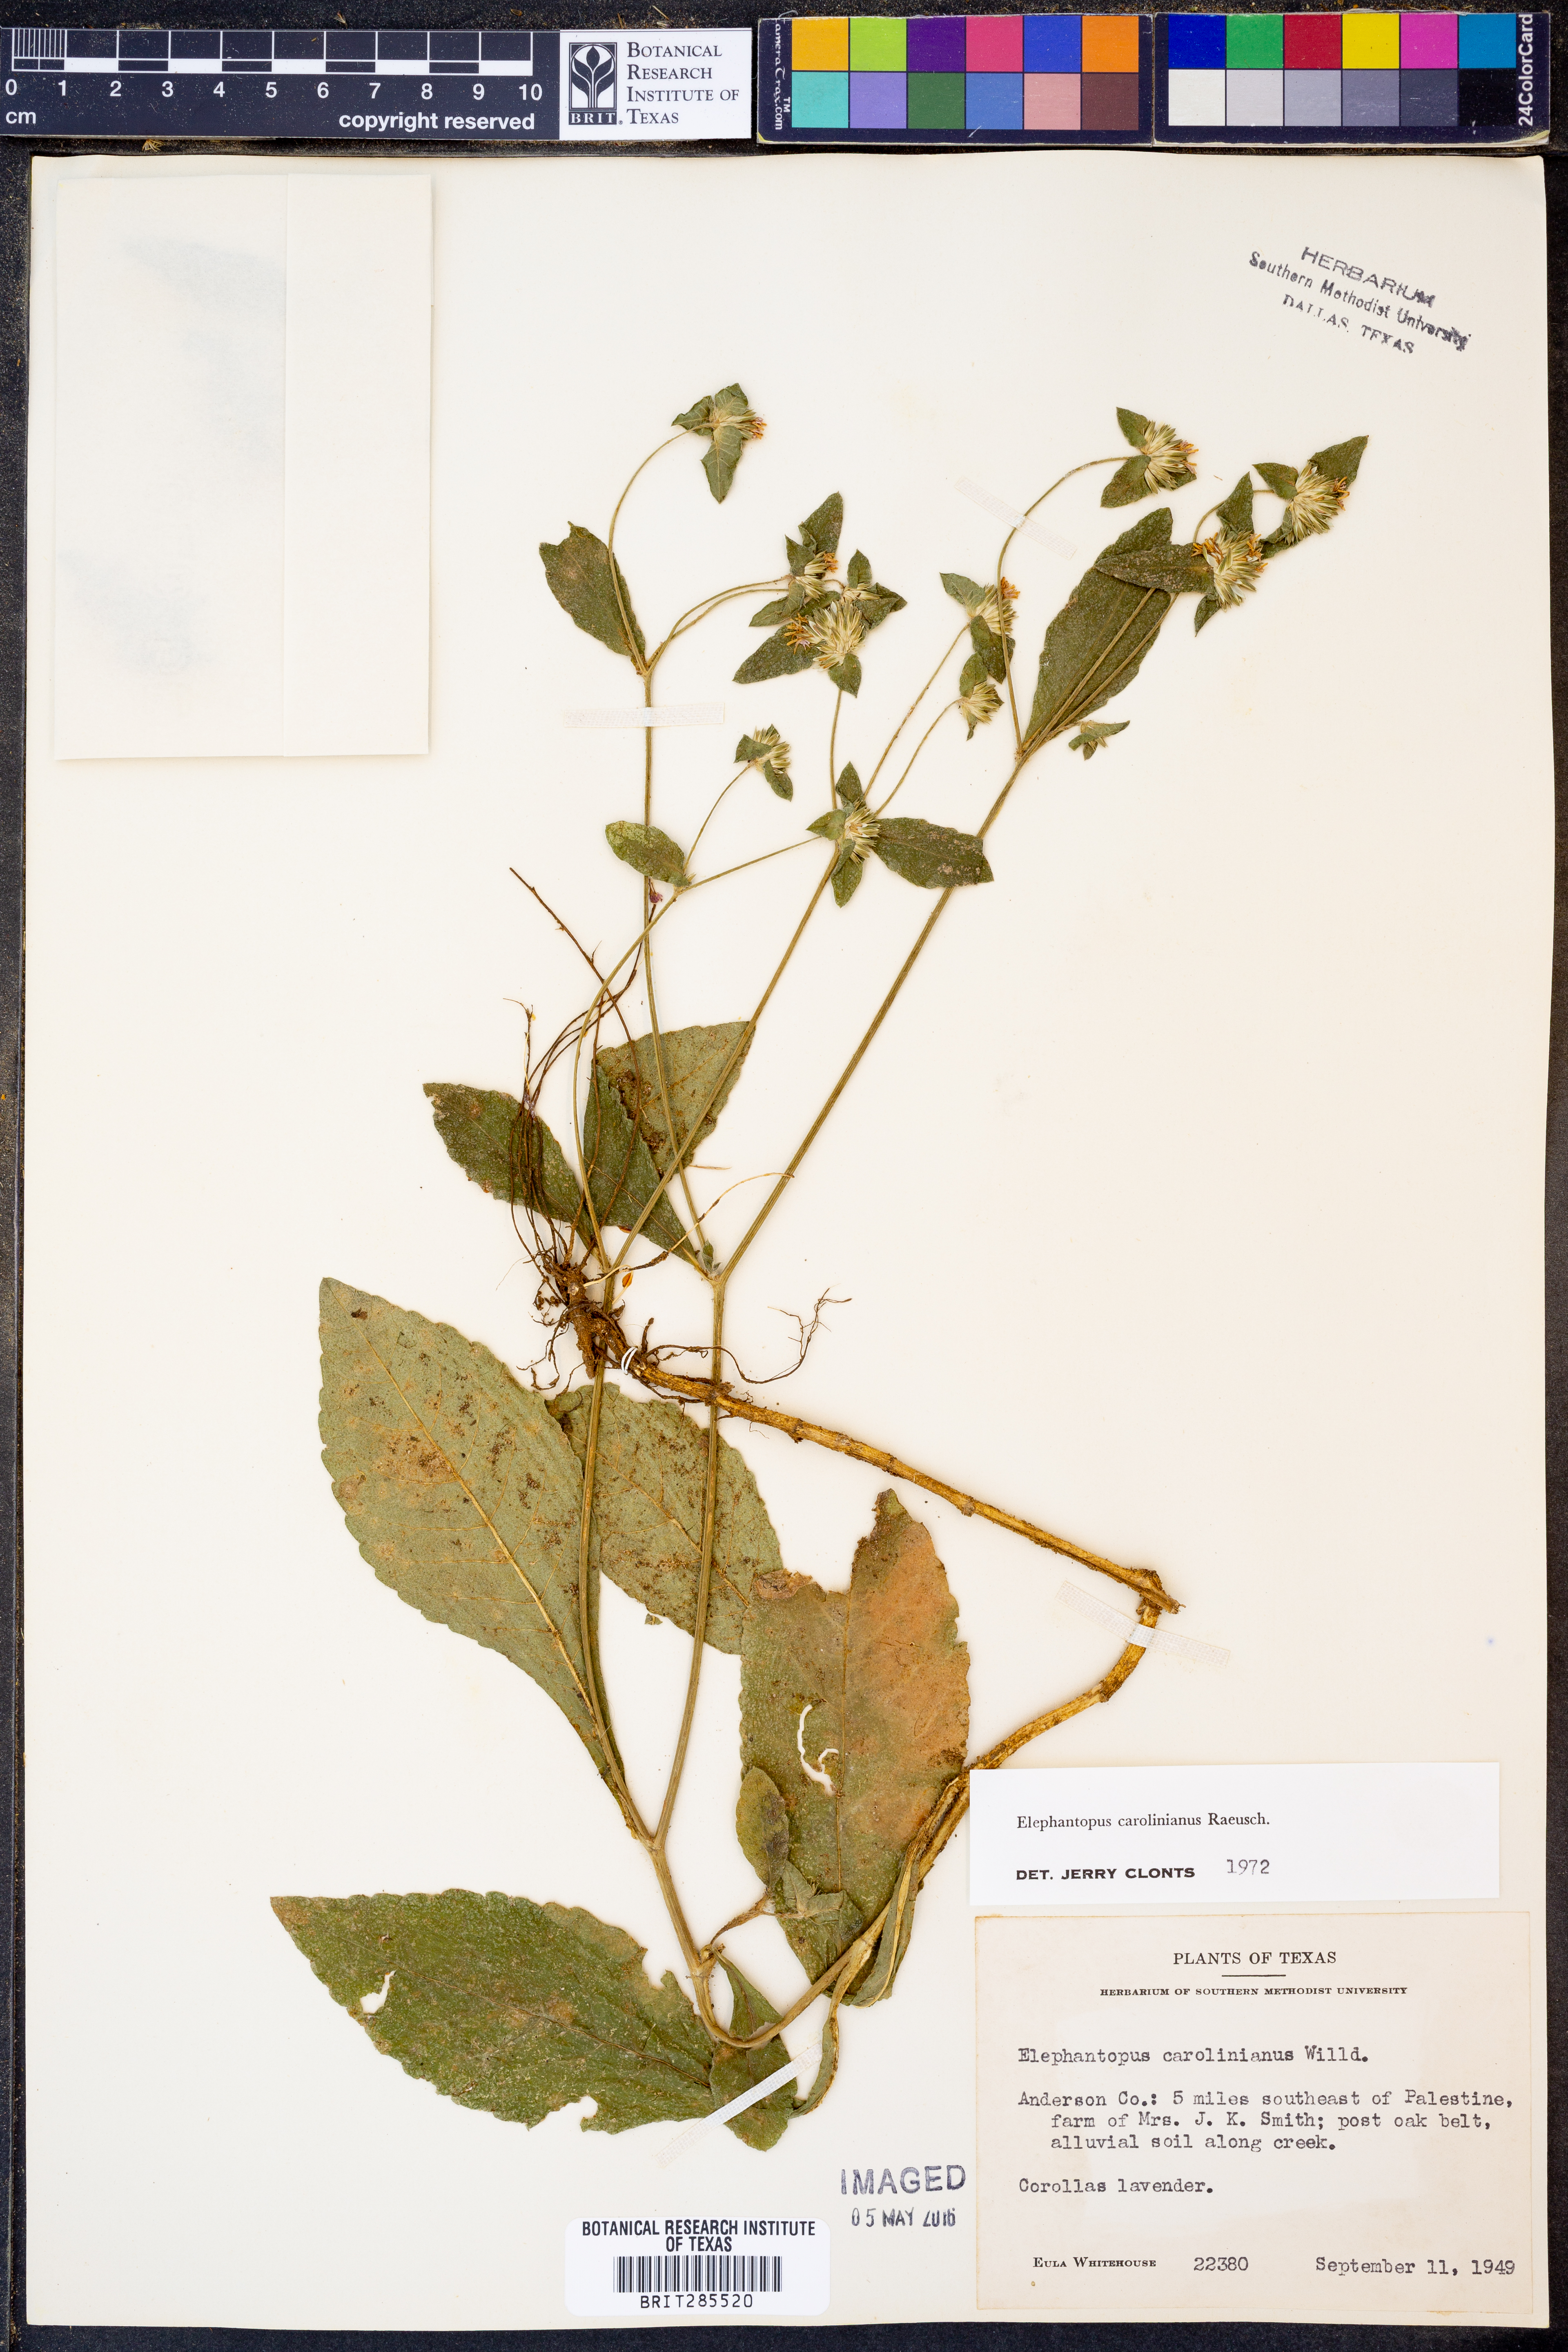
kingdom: Plantae
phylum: Tracheophyta
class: Magnoliopsida
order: Asterales
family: Asteraceae
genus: Elephantopus
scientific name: Elephantopus carolinianus
